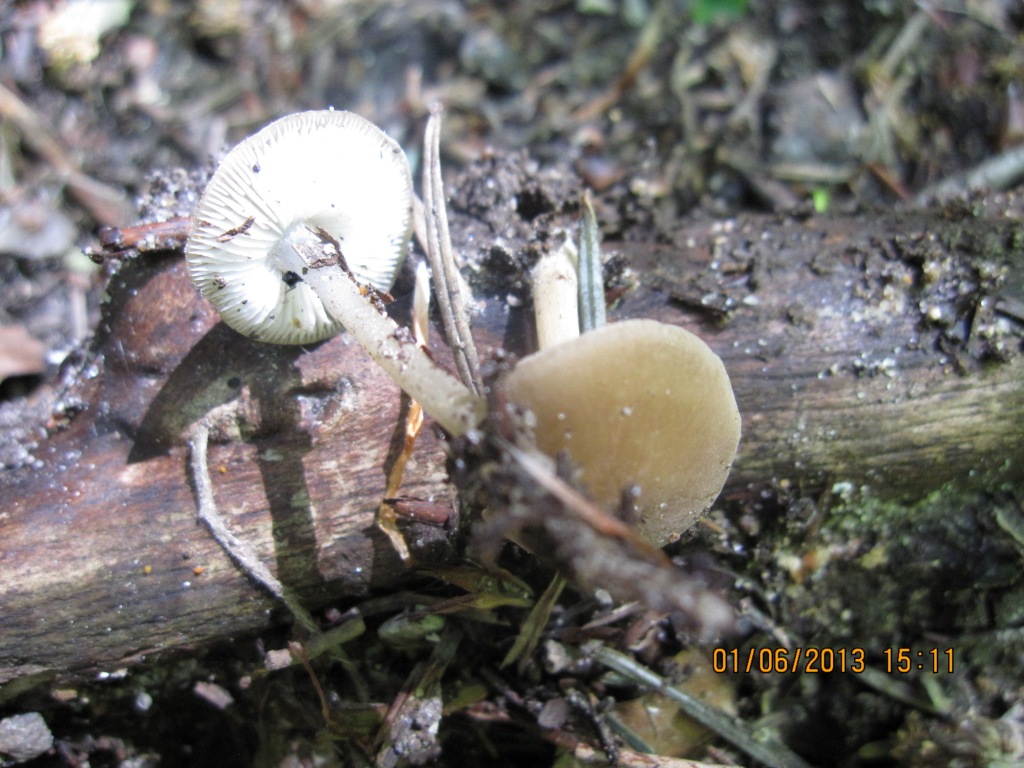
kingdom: Fungi
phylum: Basidiomycota
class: Agaricomycetes
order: Agaricales
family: Porotheleaceae
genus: Hydropodia
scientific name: Hydropodia subalpina
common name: vår-fnugfod
